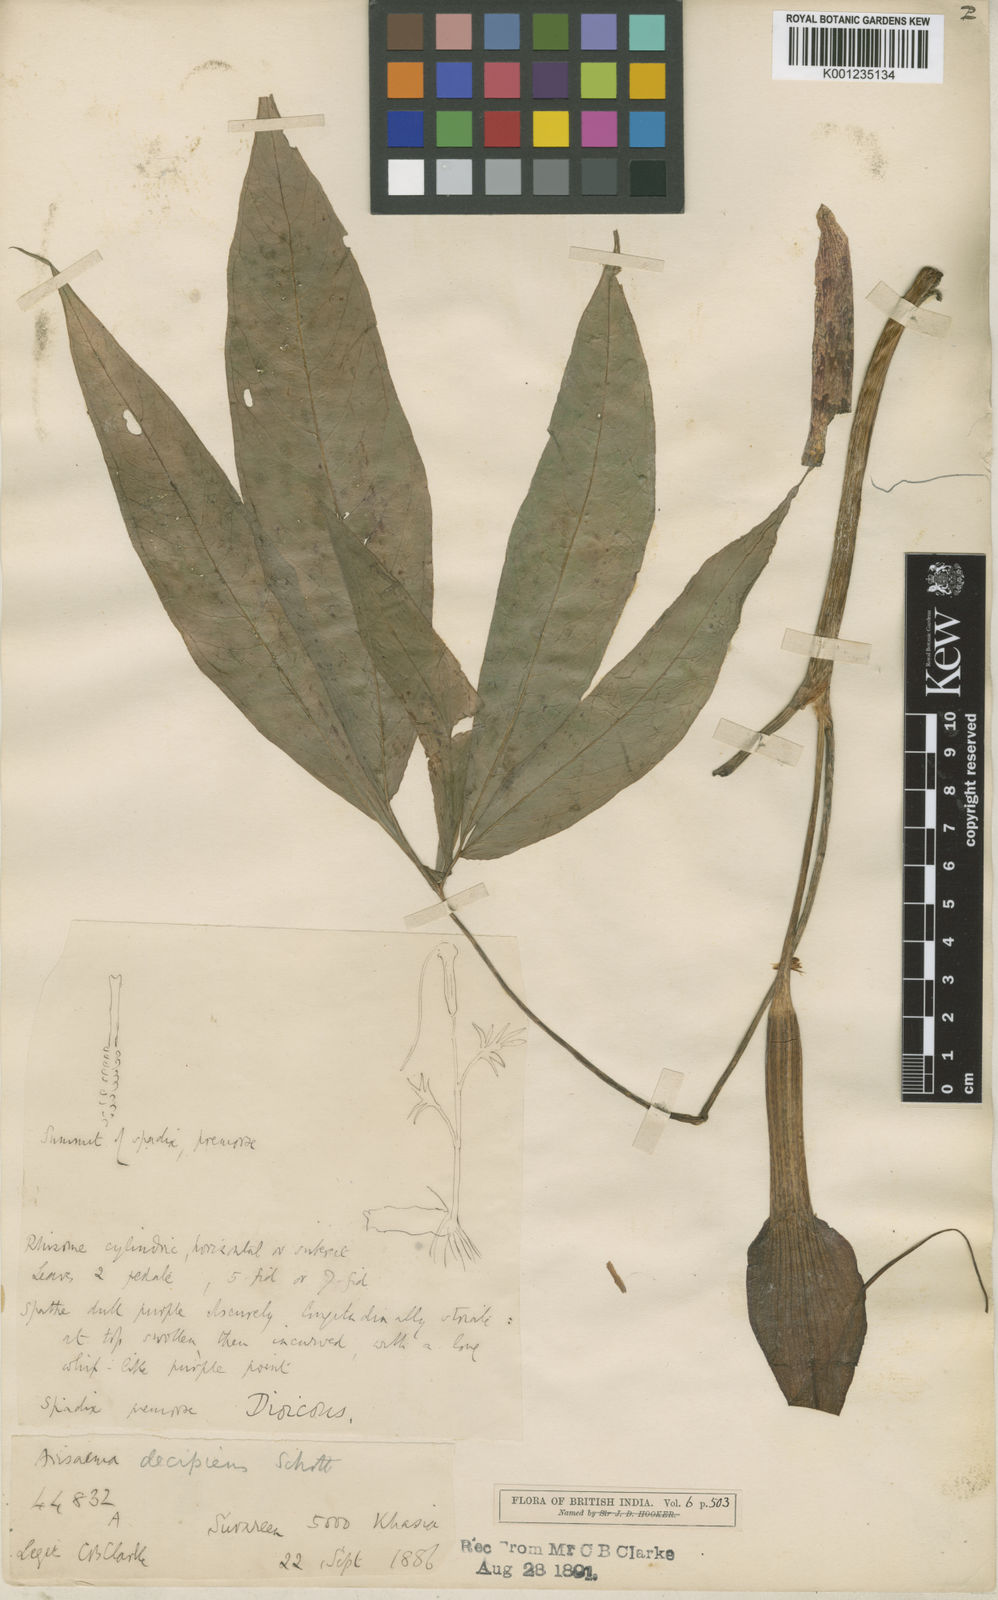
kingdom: Plantae
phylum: Tracheophyta
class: Liliopsida
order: Alismatales
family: Araceae
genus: Arisaema
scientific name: Arisaema decipiens
